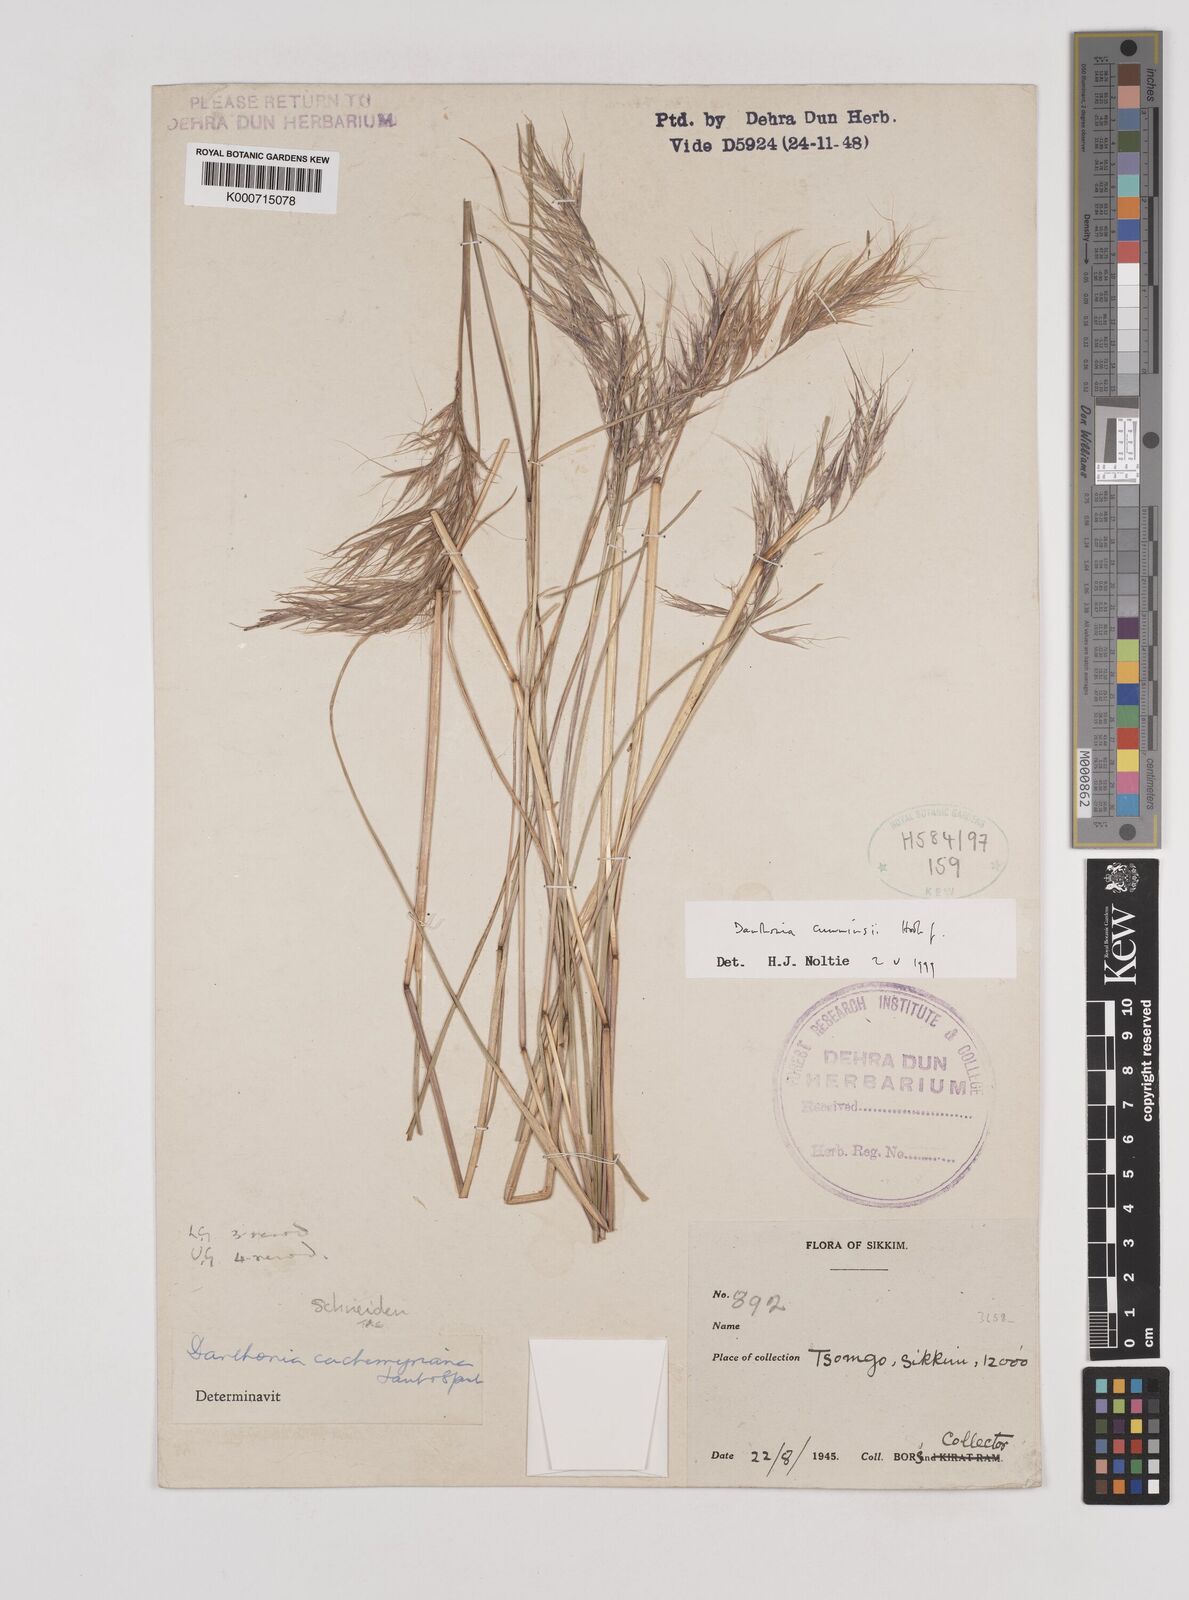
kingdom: Plantae
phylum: Tracheophyta
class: Liliopsida
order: Poales
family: Poaceae
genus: Rytidosperma
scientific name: Rytidosperma
